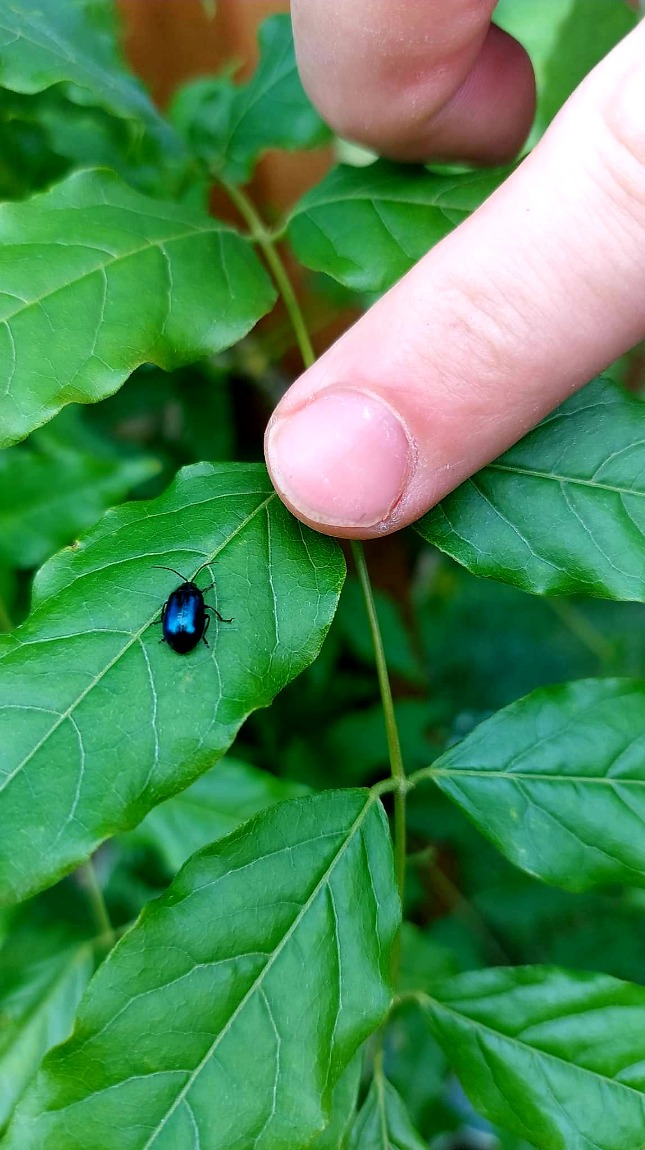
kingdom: Animalia
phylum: Arthropoda
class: Insecta
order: Coleoptera
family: Chrysomelidae
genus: Agelastica
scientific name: Agelastica alni
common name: Ellebladbille
